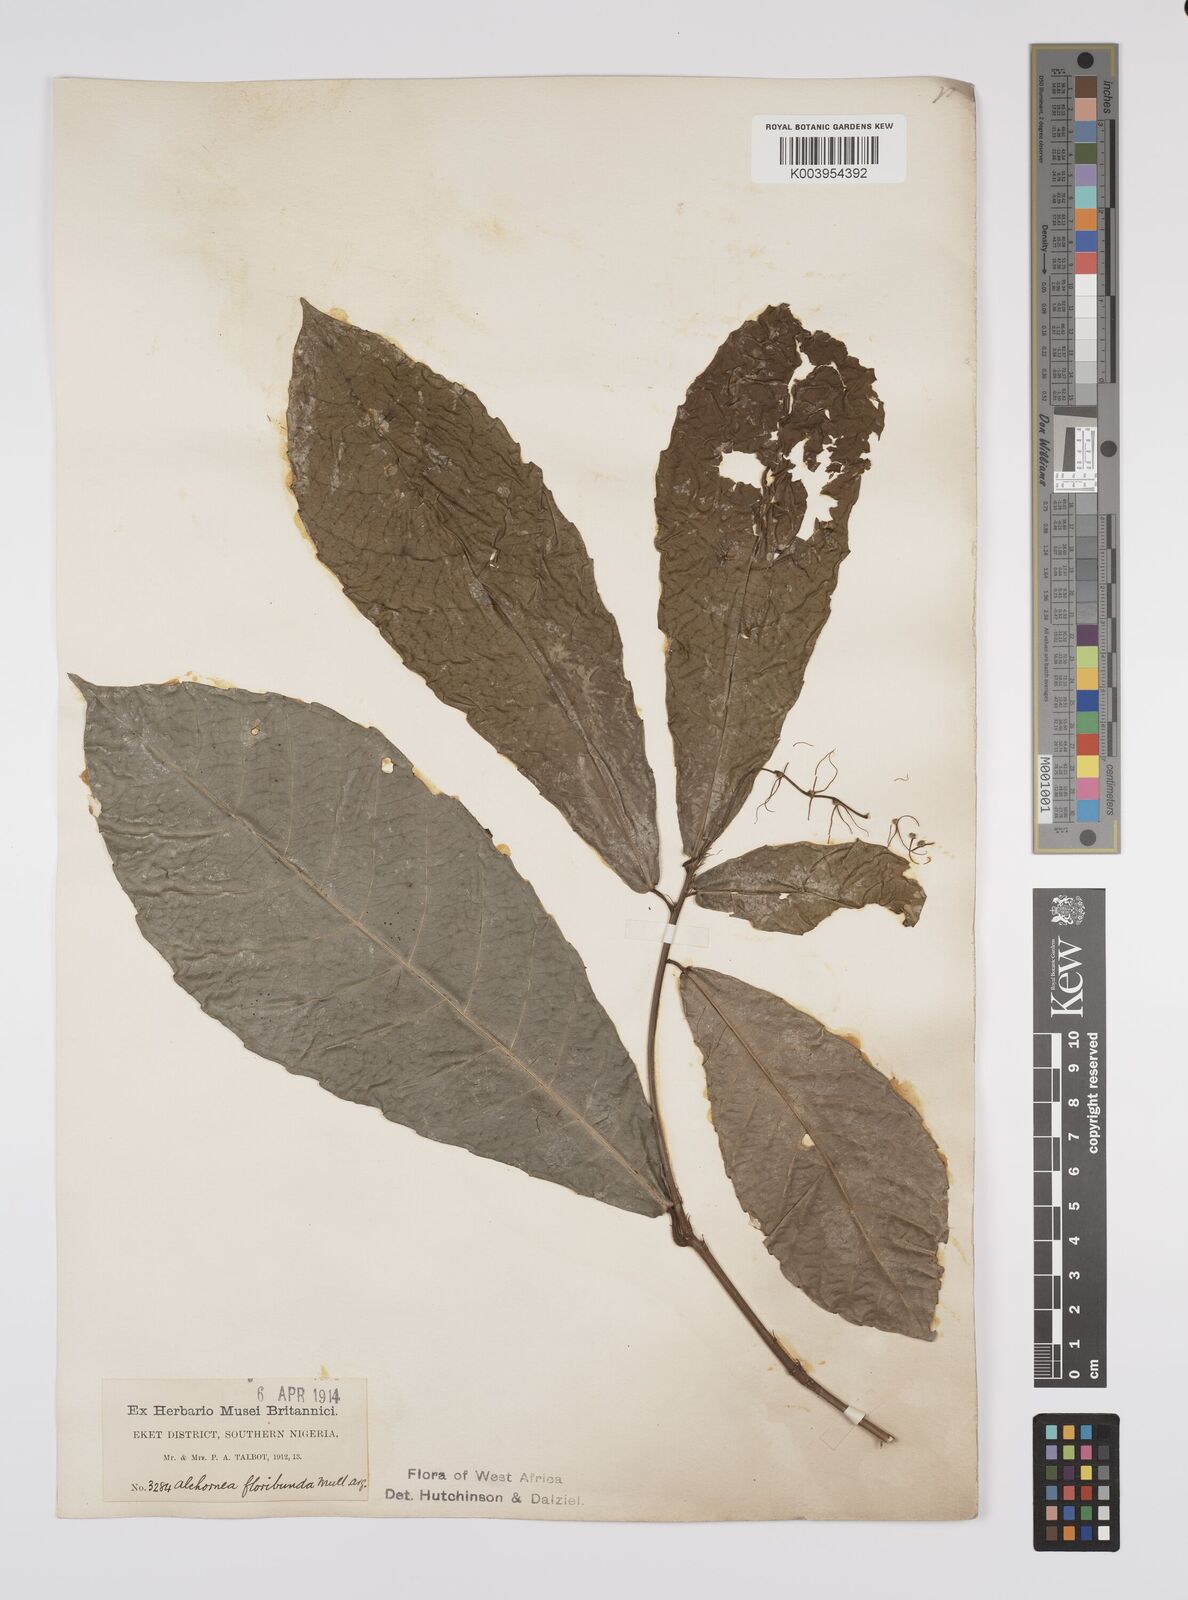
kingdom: Plantae
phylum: Tracheophyta
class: Magnoliopsida
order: Malpighiales
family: Euphorbiaceae
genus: Alchornea
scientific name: Alchornea floribunda
